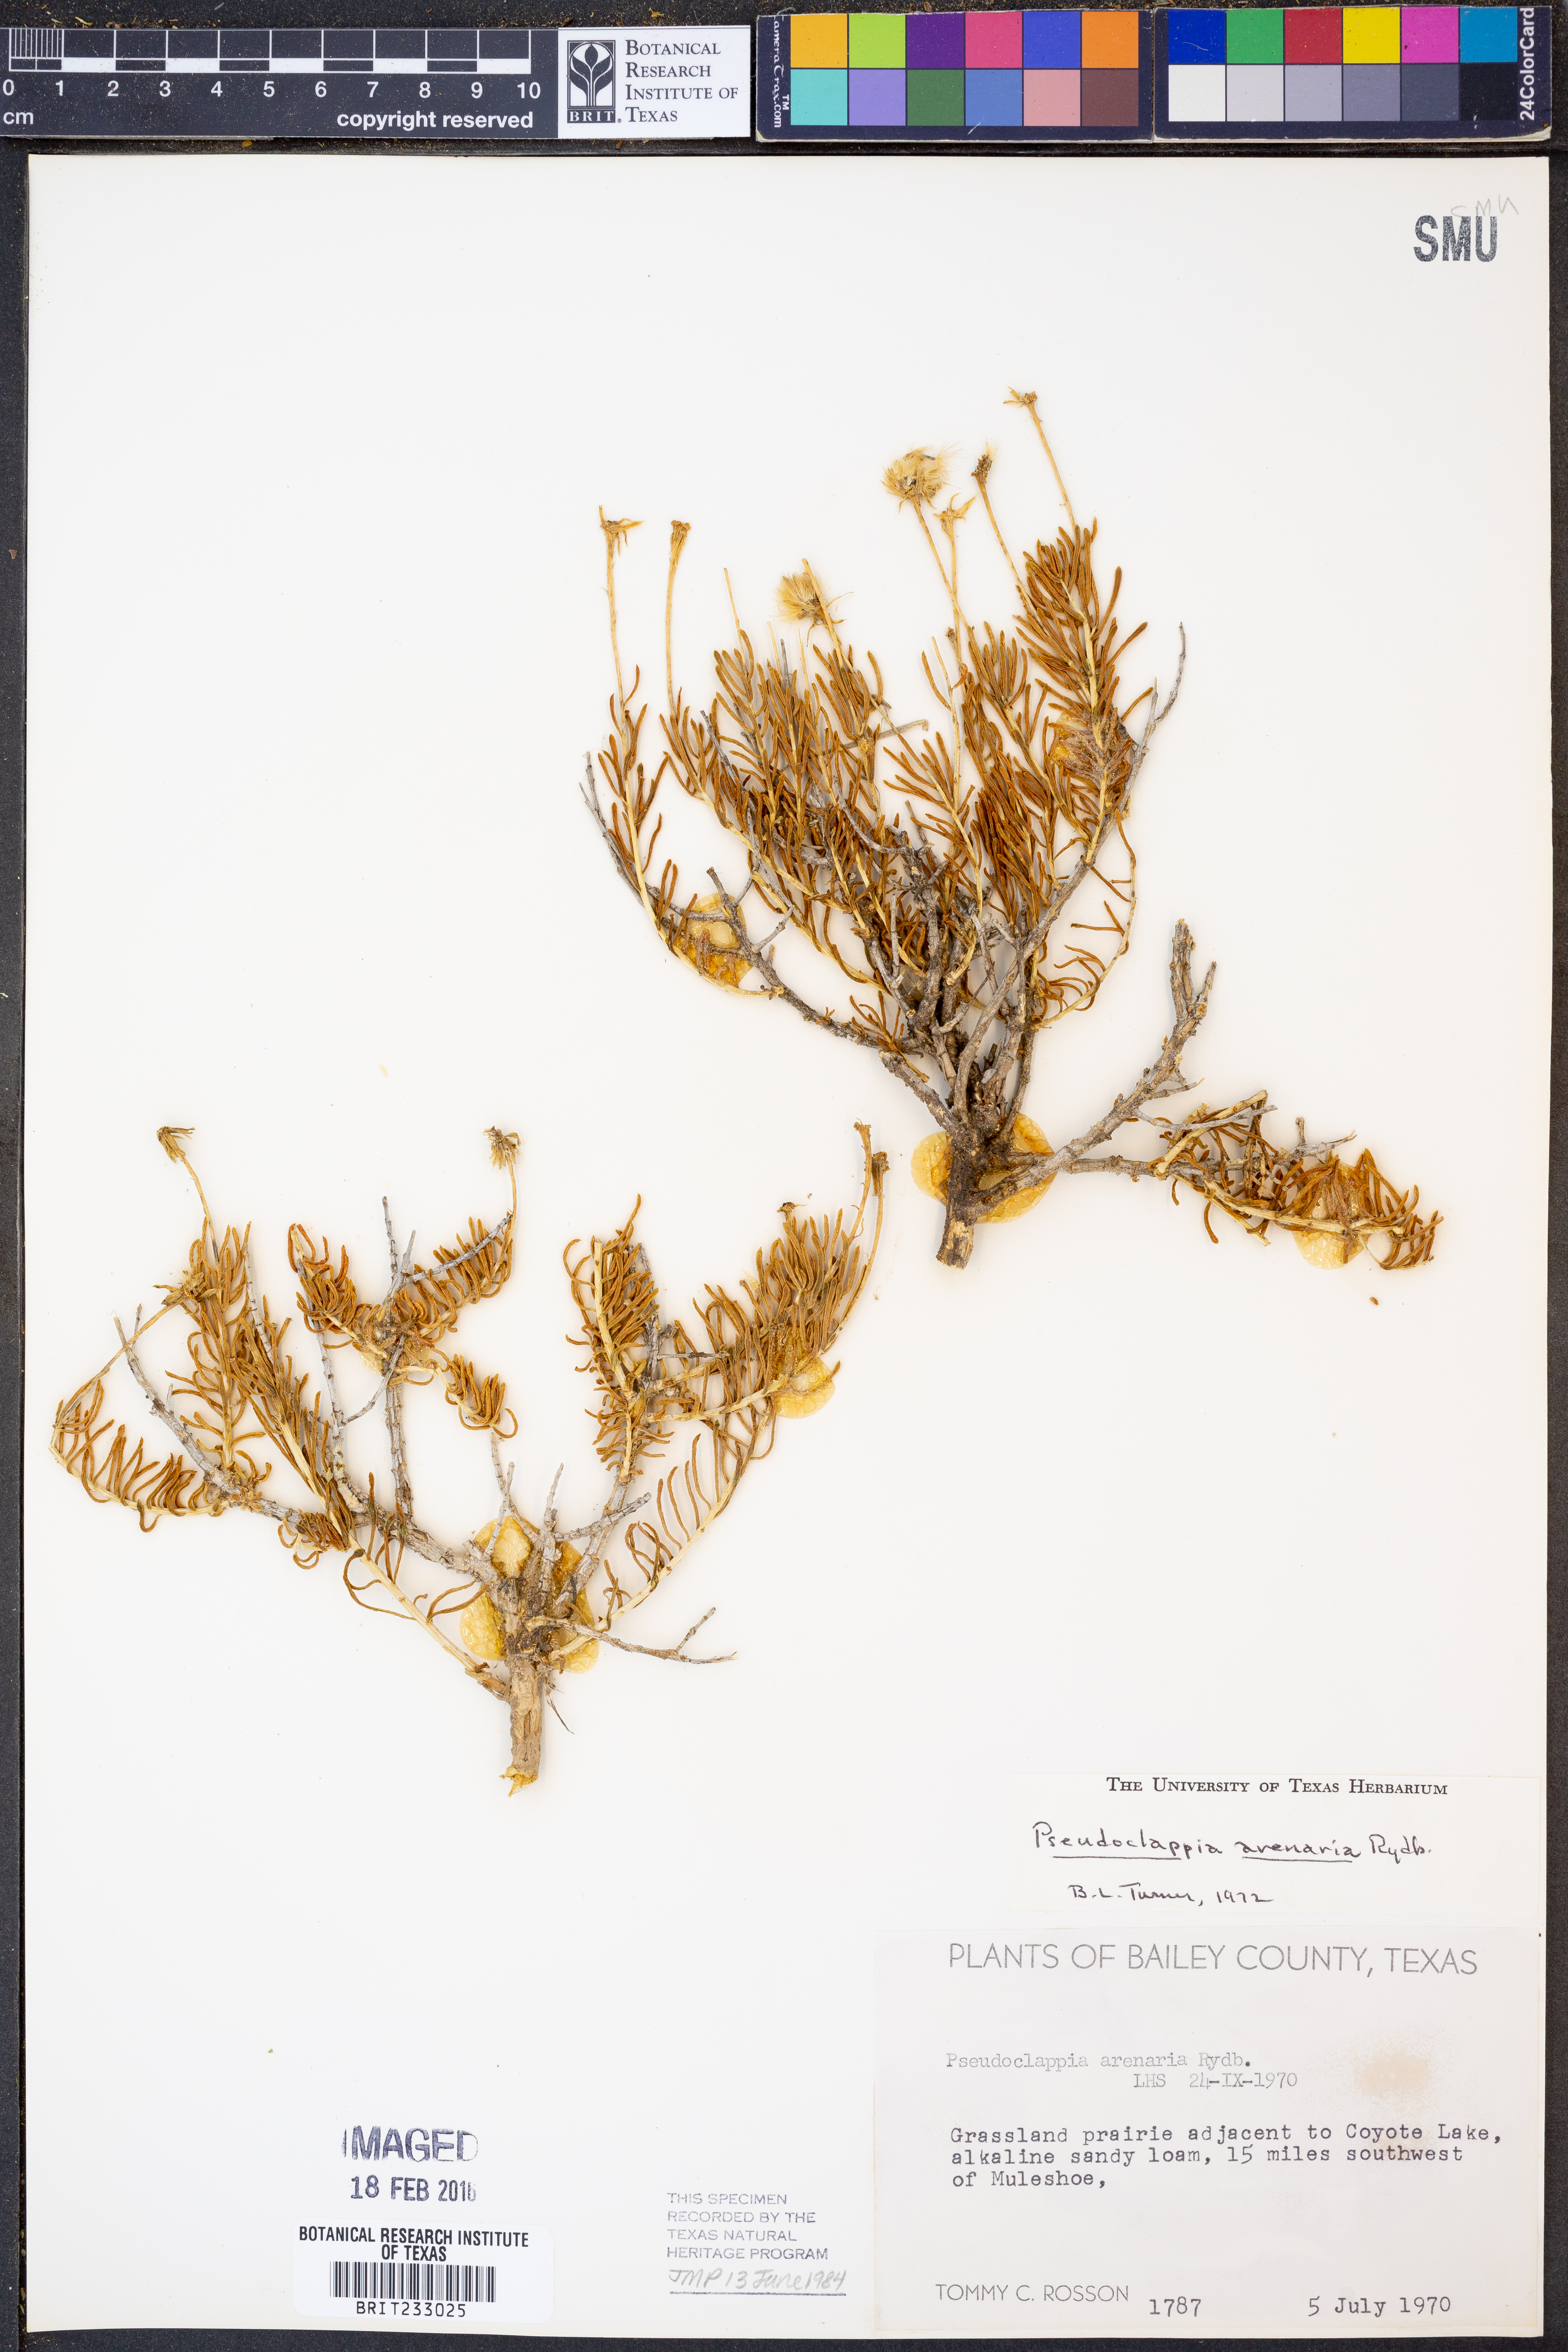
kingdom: Plantae
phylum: Tracheophyta
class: Magnoliopsida
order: Asterales
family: Asteraceae
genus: Pseudoclappia
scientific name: Pseudoclappia arenaria
